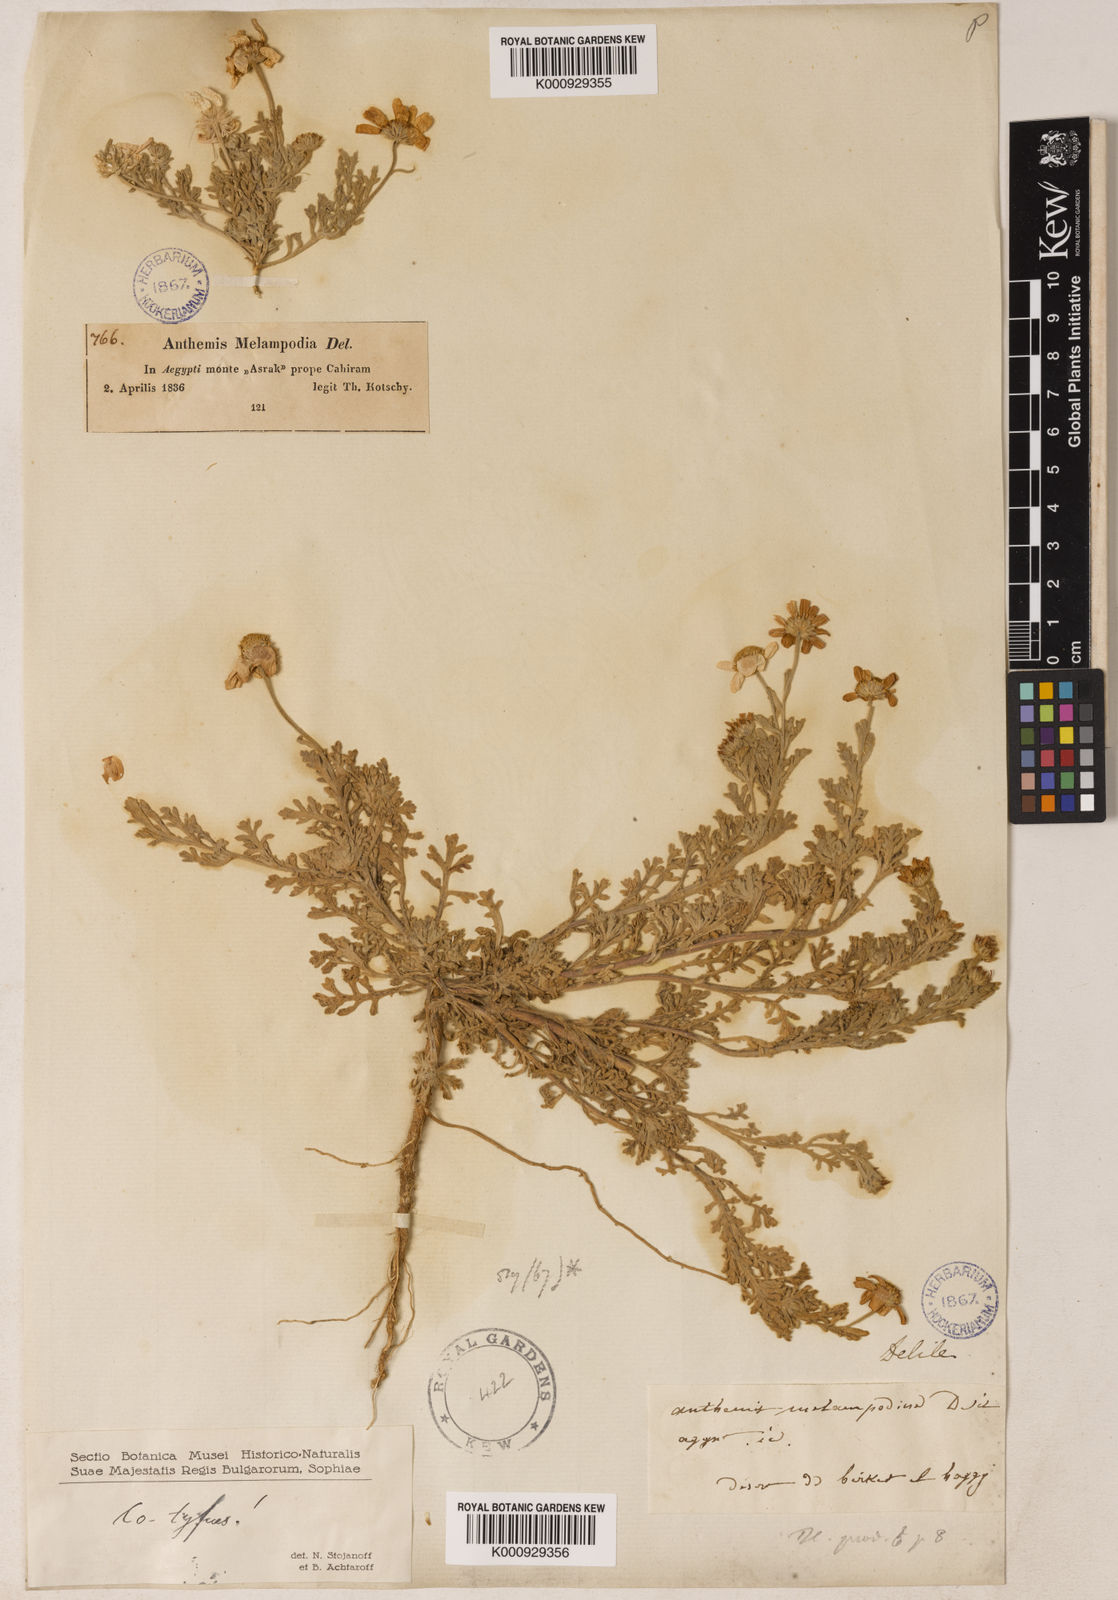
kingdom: Plantae
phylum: Tracheophyta
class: Magnoliopsida
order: Asterales
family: Asteraceae
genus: Anthemis
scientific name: Anthemis melampodina
